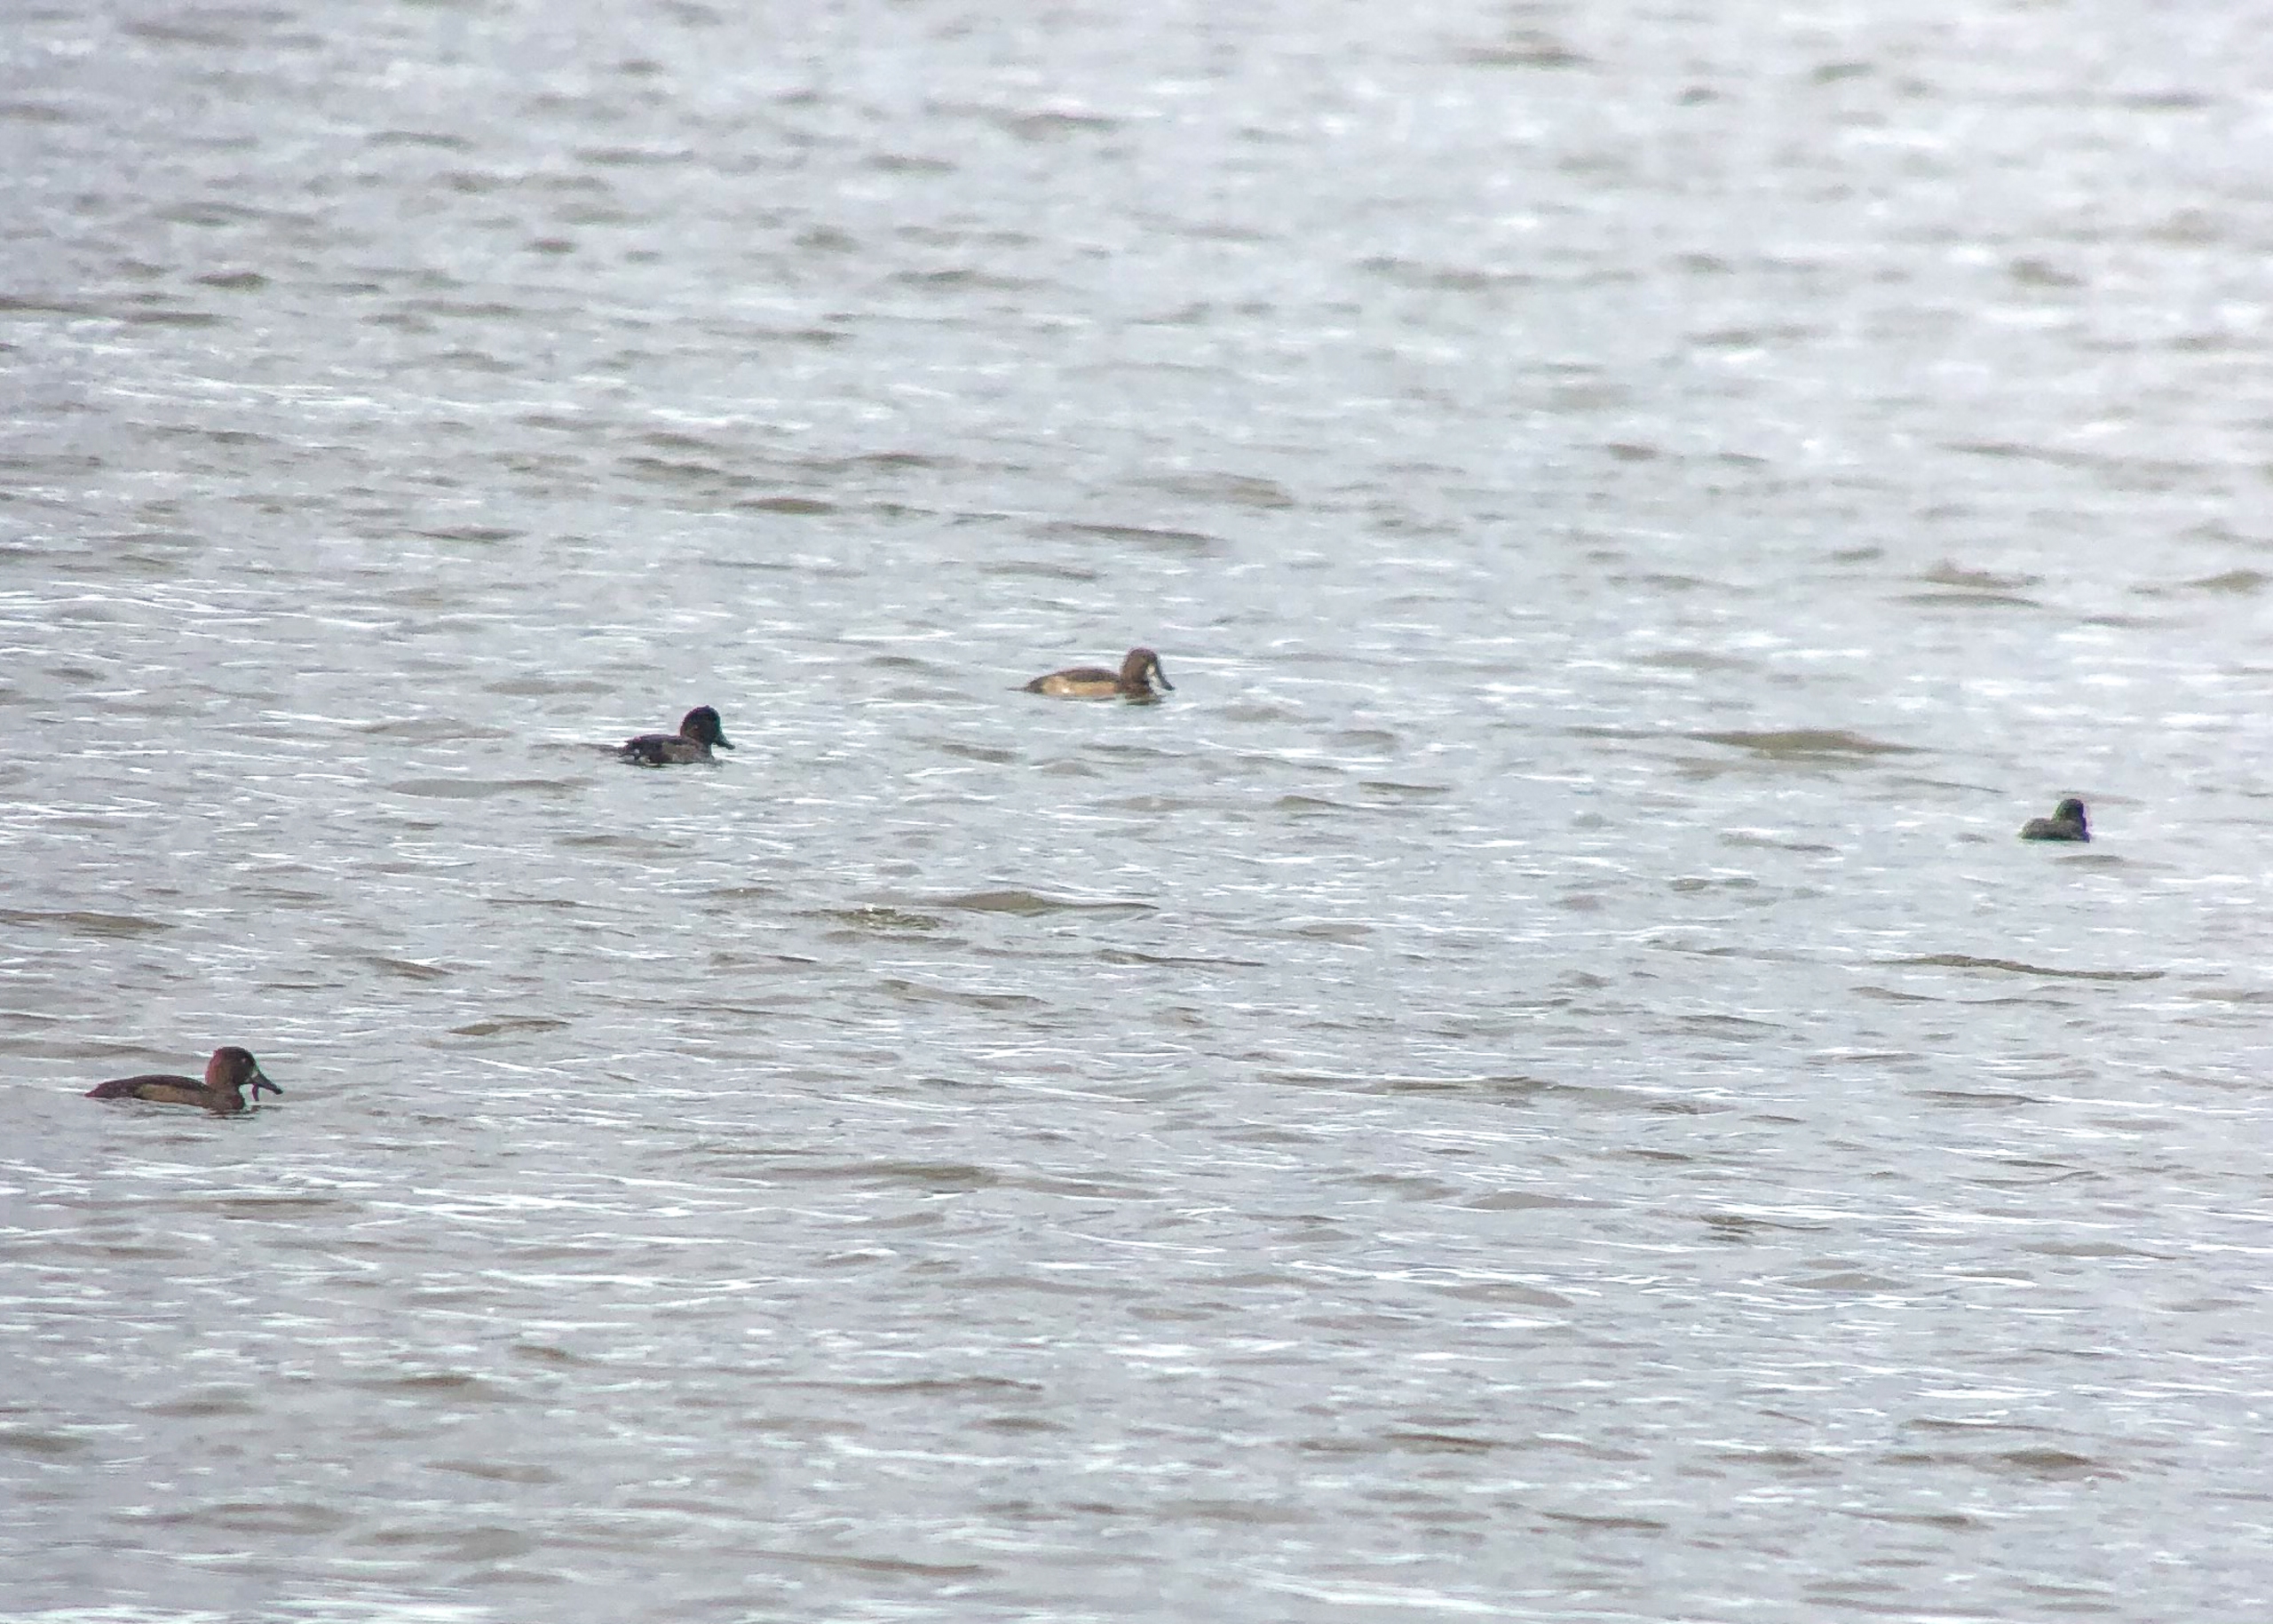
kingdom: Animalia
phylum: Chordata
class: Aves
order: Anseriformes
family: Anatidae
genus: Aythya
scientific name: Aythya fuligula
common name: Troldand
